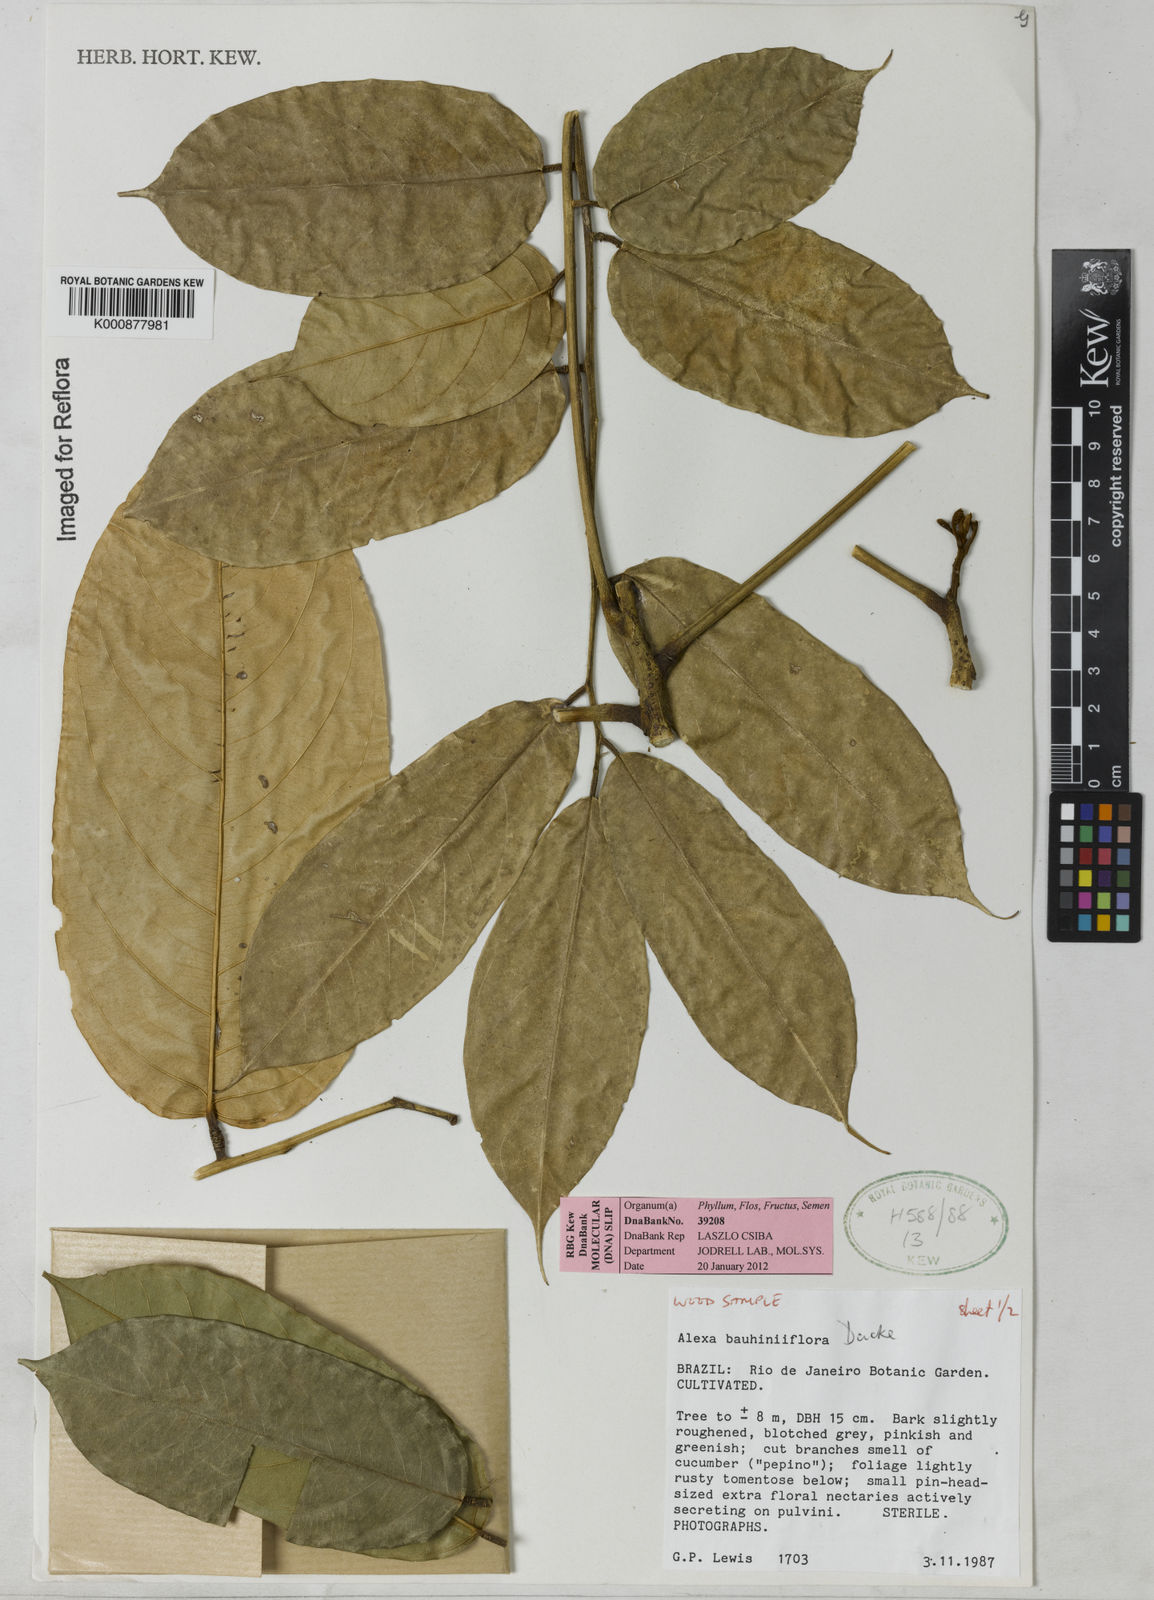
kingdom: Plantae
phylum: Tracheophyta
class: Magnoliopsida
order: Fabales
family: Fabaceae
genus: Alexa
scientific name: Alexa bauhiniiflora
